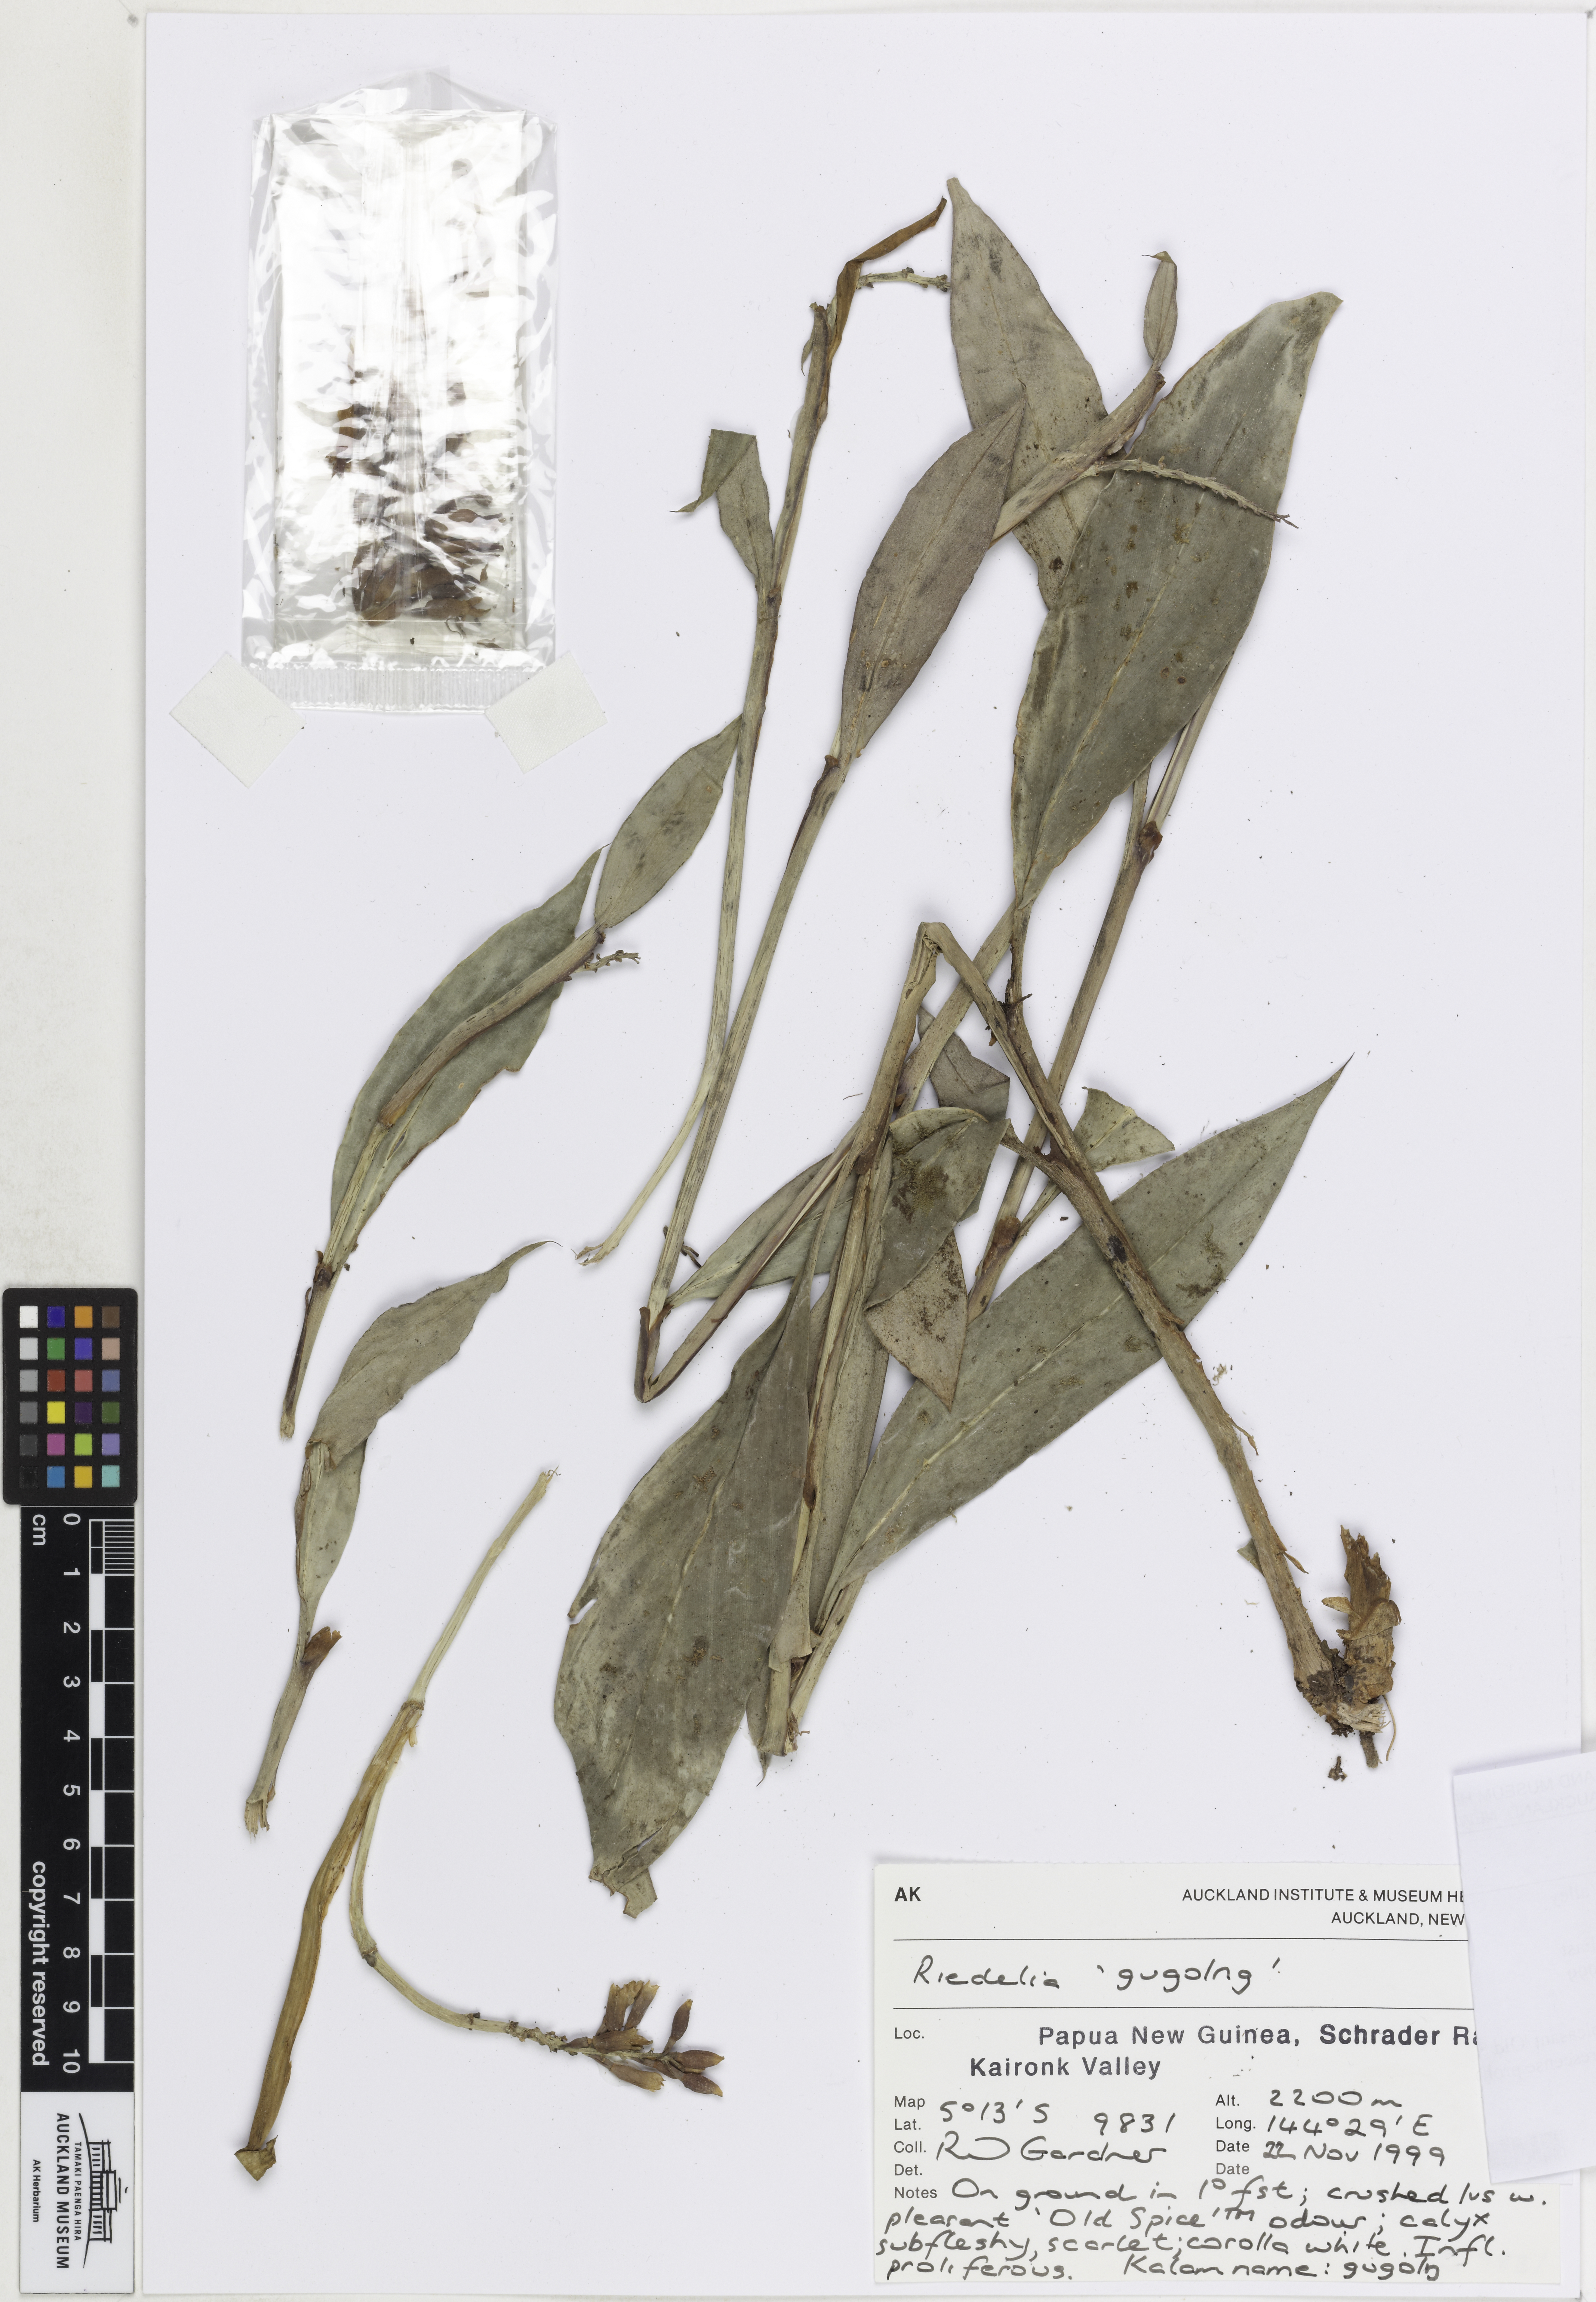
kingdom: Plantae
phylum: Tracheophyta
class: Liliopsida
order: Zingiberales
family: Zingiberaceae
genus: Riedelia
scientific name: Riedelia
